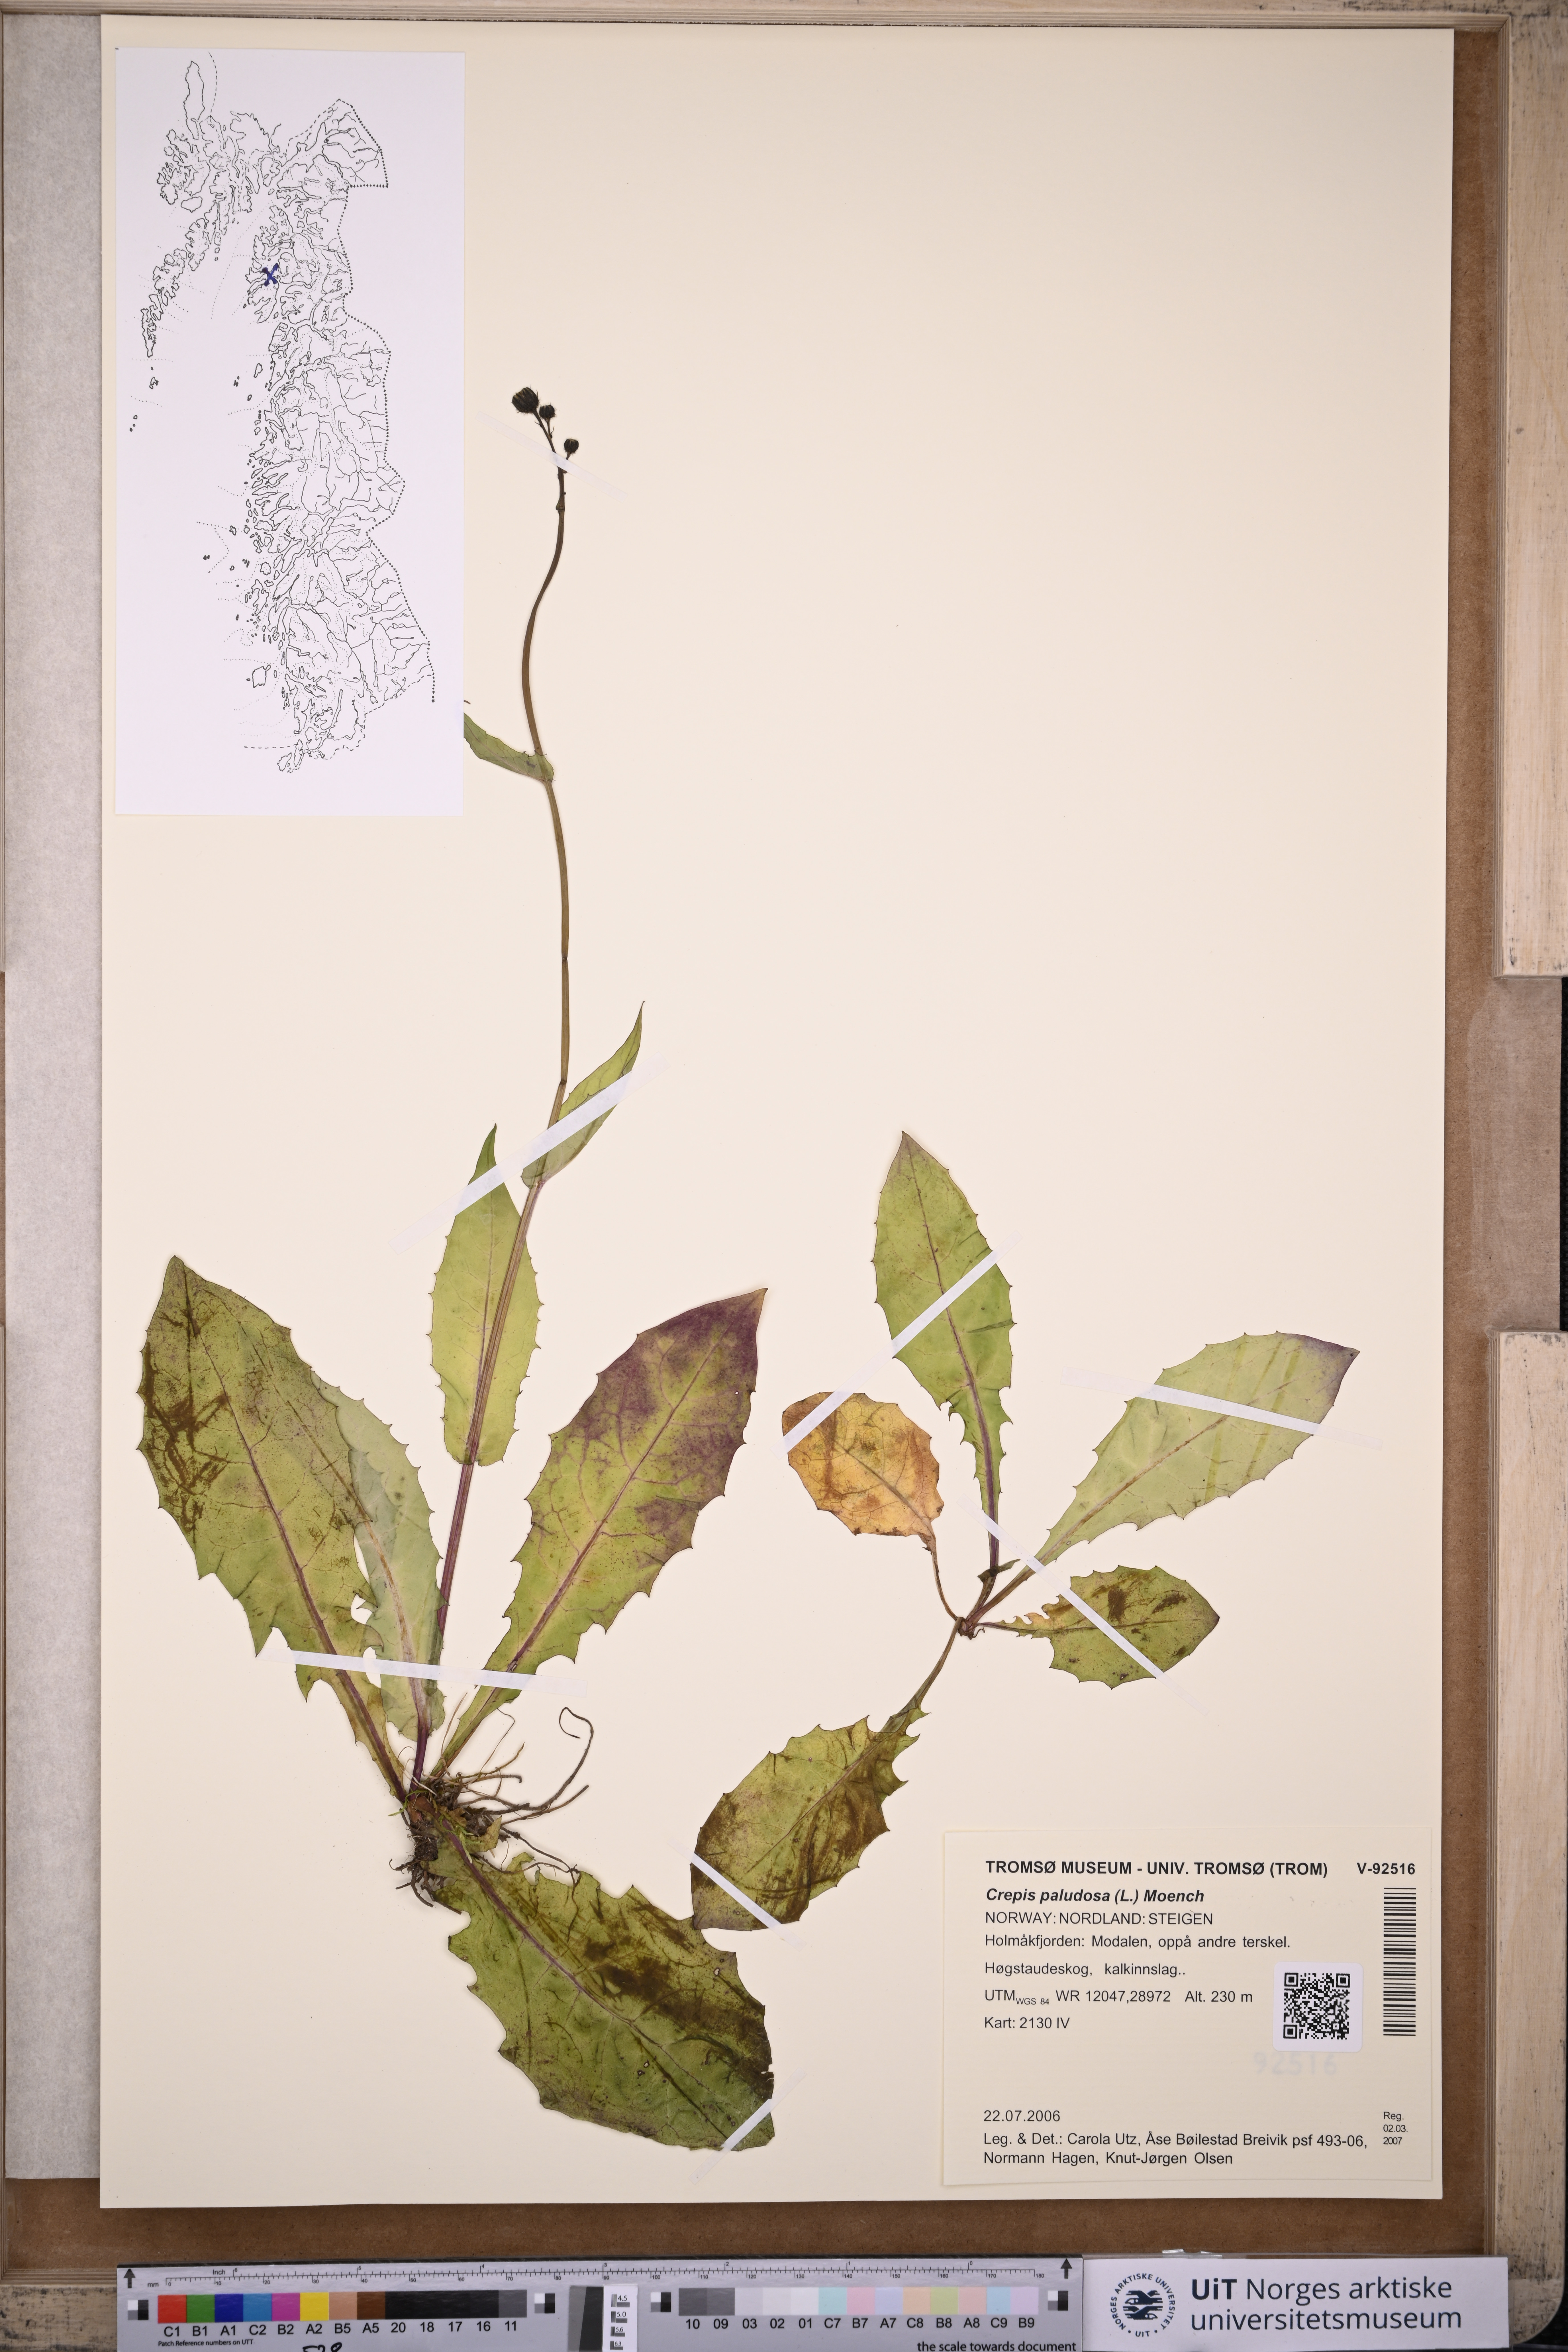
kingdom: Plantae
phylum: Tracheophyta
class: Magnoliopsida
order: Asterales
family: Asteraceae
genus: Crepis
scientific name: Crepis paludosa
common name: Marsh hawk's-beard
